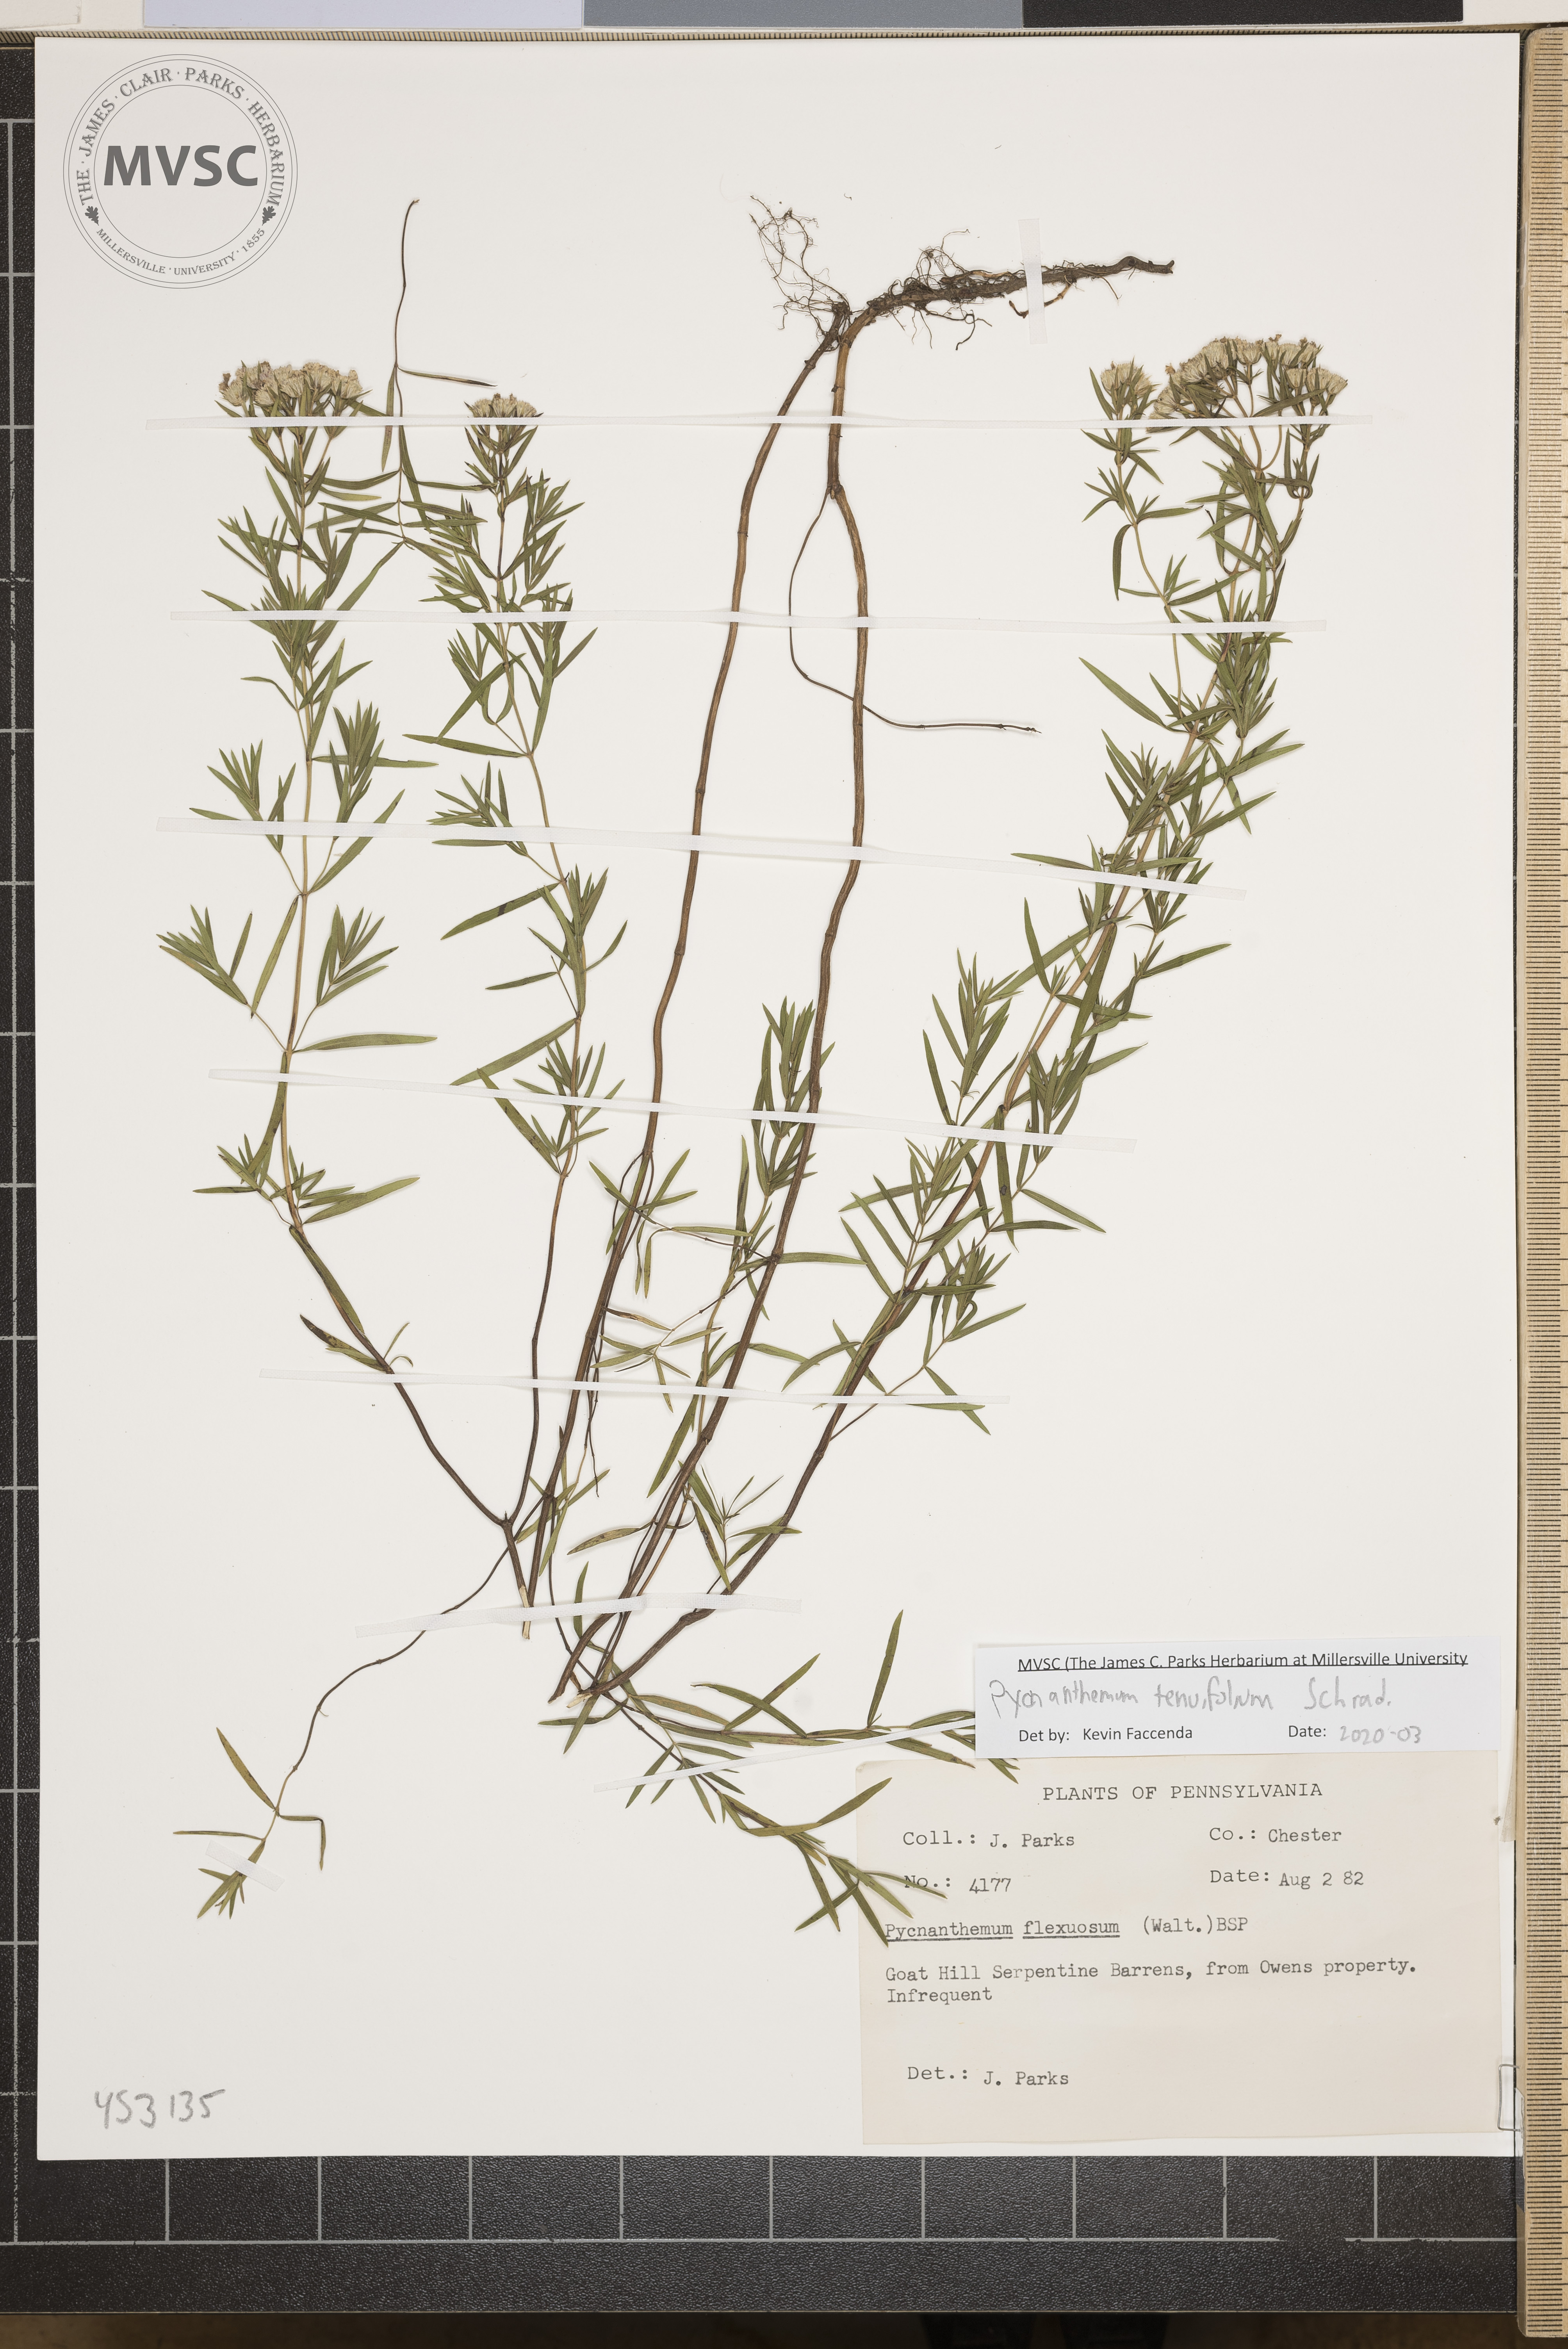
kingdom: Plantae
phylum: Tracheophyta
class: Magnoliopsida
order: Lamiales
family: Lamiaceae
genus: Pycnanthemum
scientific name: Pycnanthemum tenuifolium
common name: Narrow-leaf mountain-mint
